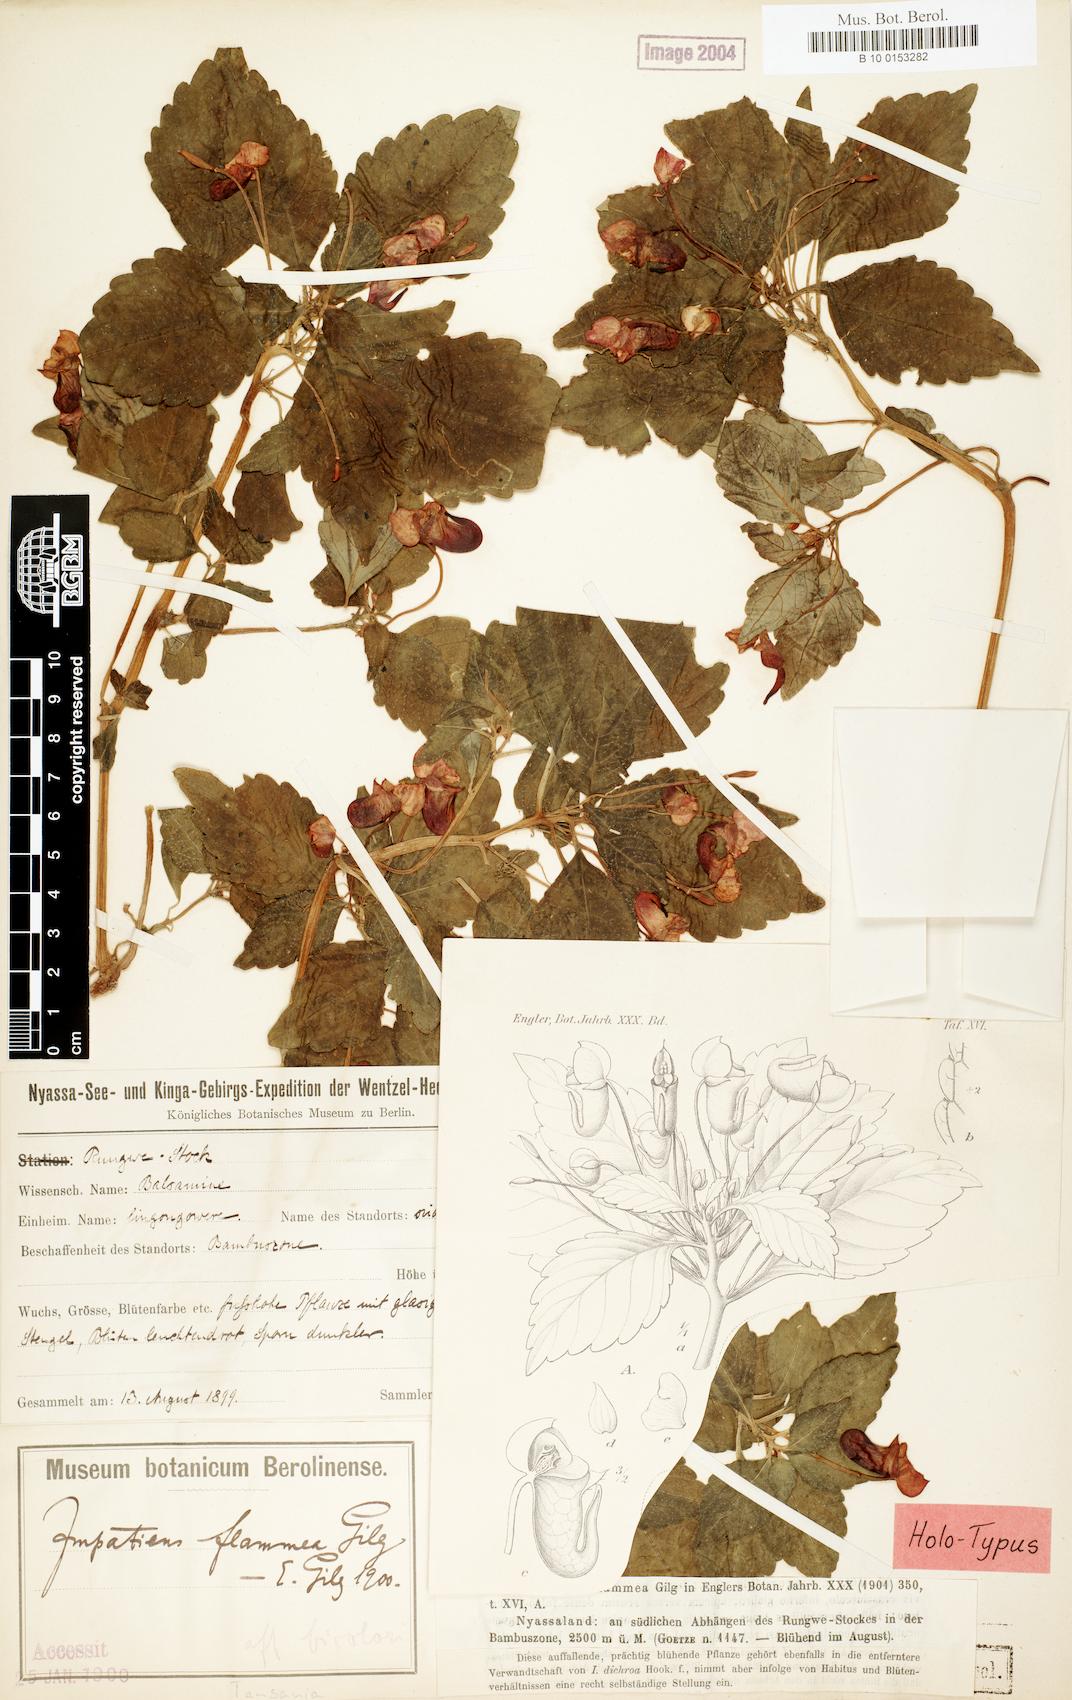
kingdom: Plantae
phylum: Tracheophyta
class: Magnoliopsida
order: Ericales
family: Balsaminaceae
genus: Impatiens
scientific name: Impatiens flammea
